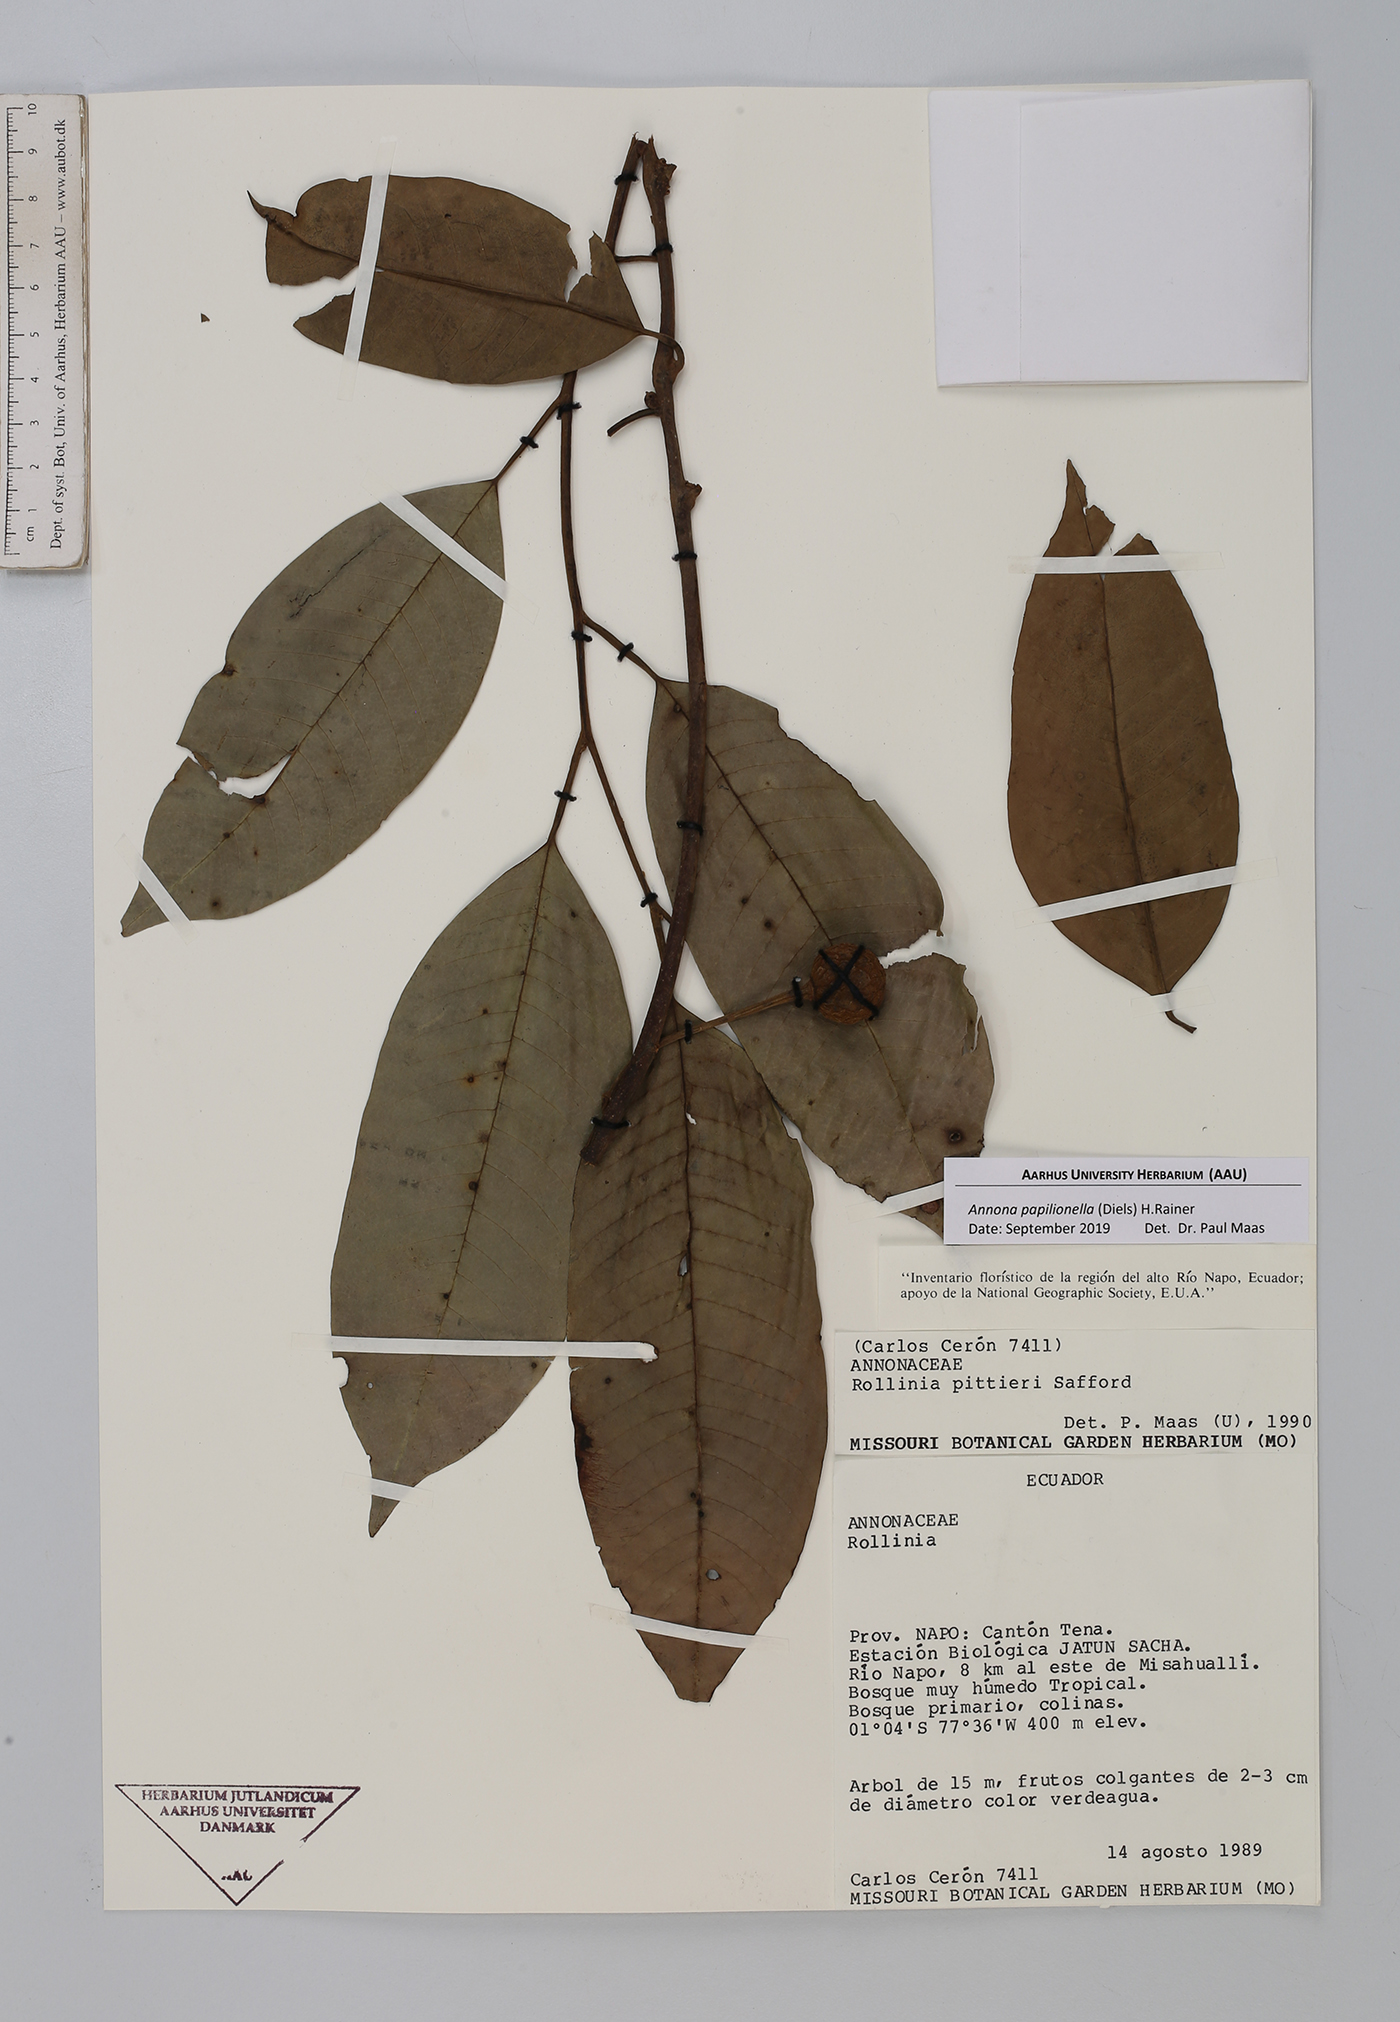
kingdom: Plantae
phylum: Tracheophyta
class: Magnoliopsida
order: Magnoliales
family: Annonaceae
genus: Annona
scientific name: Annona papilionella
